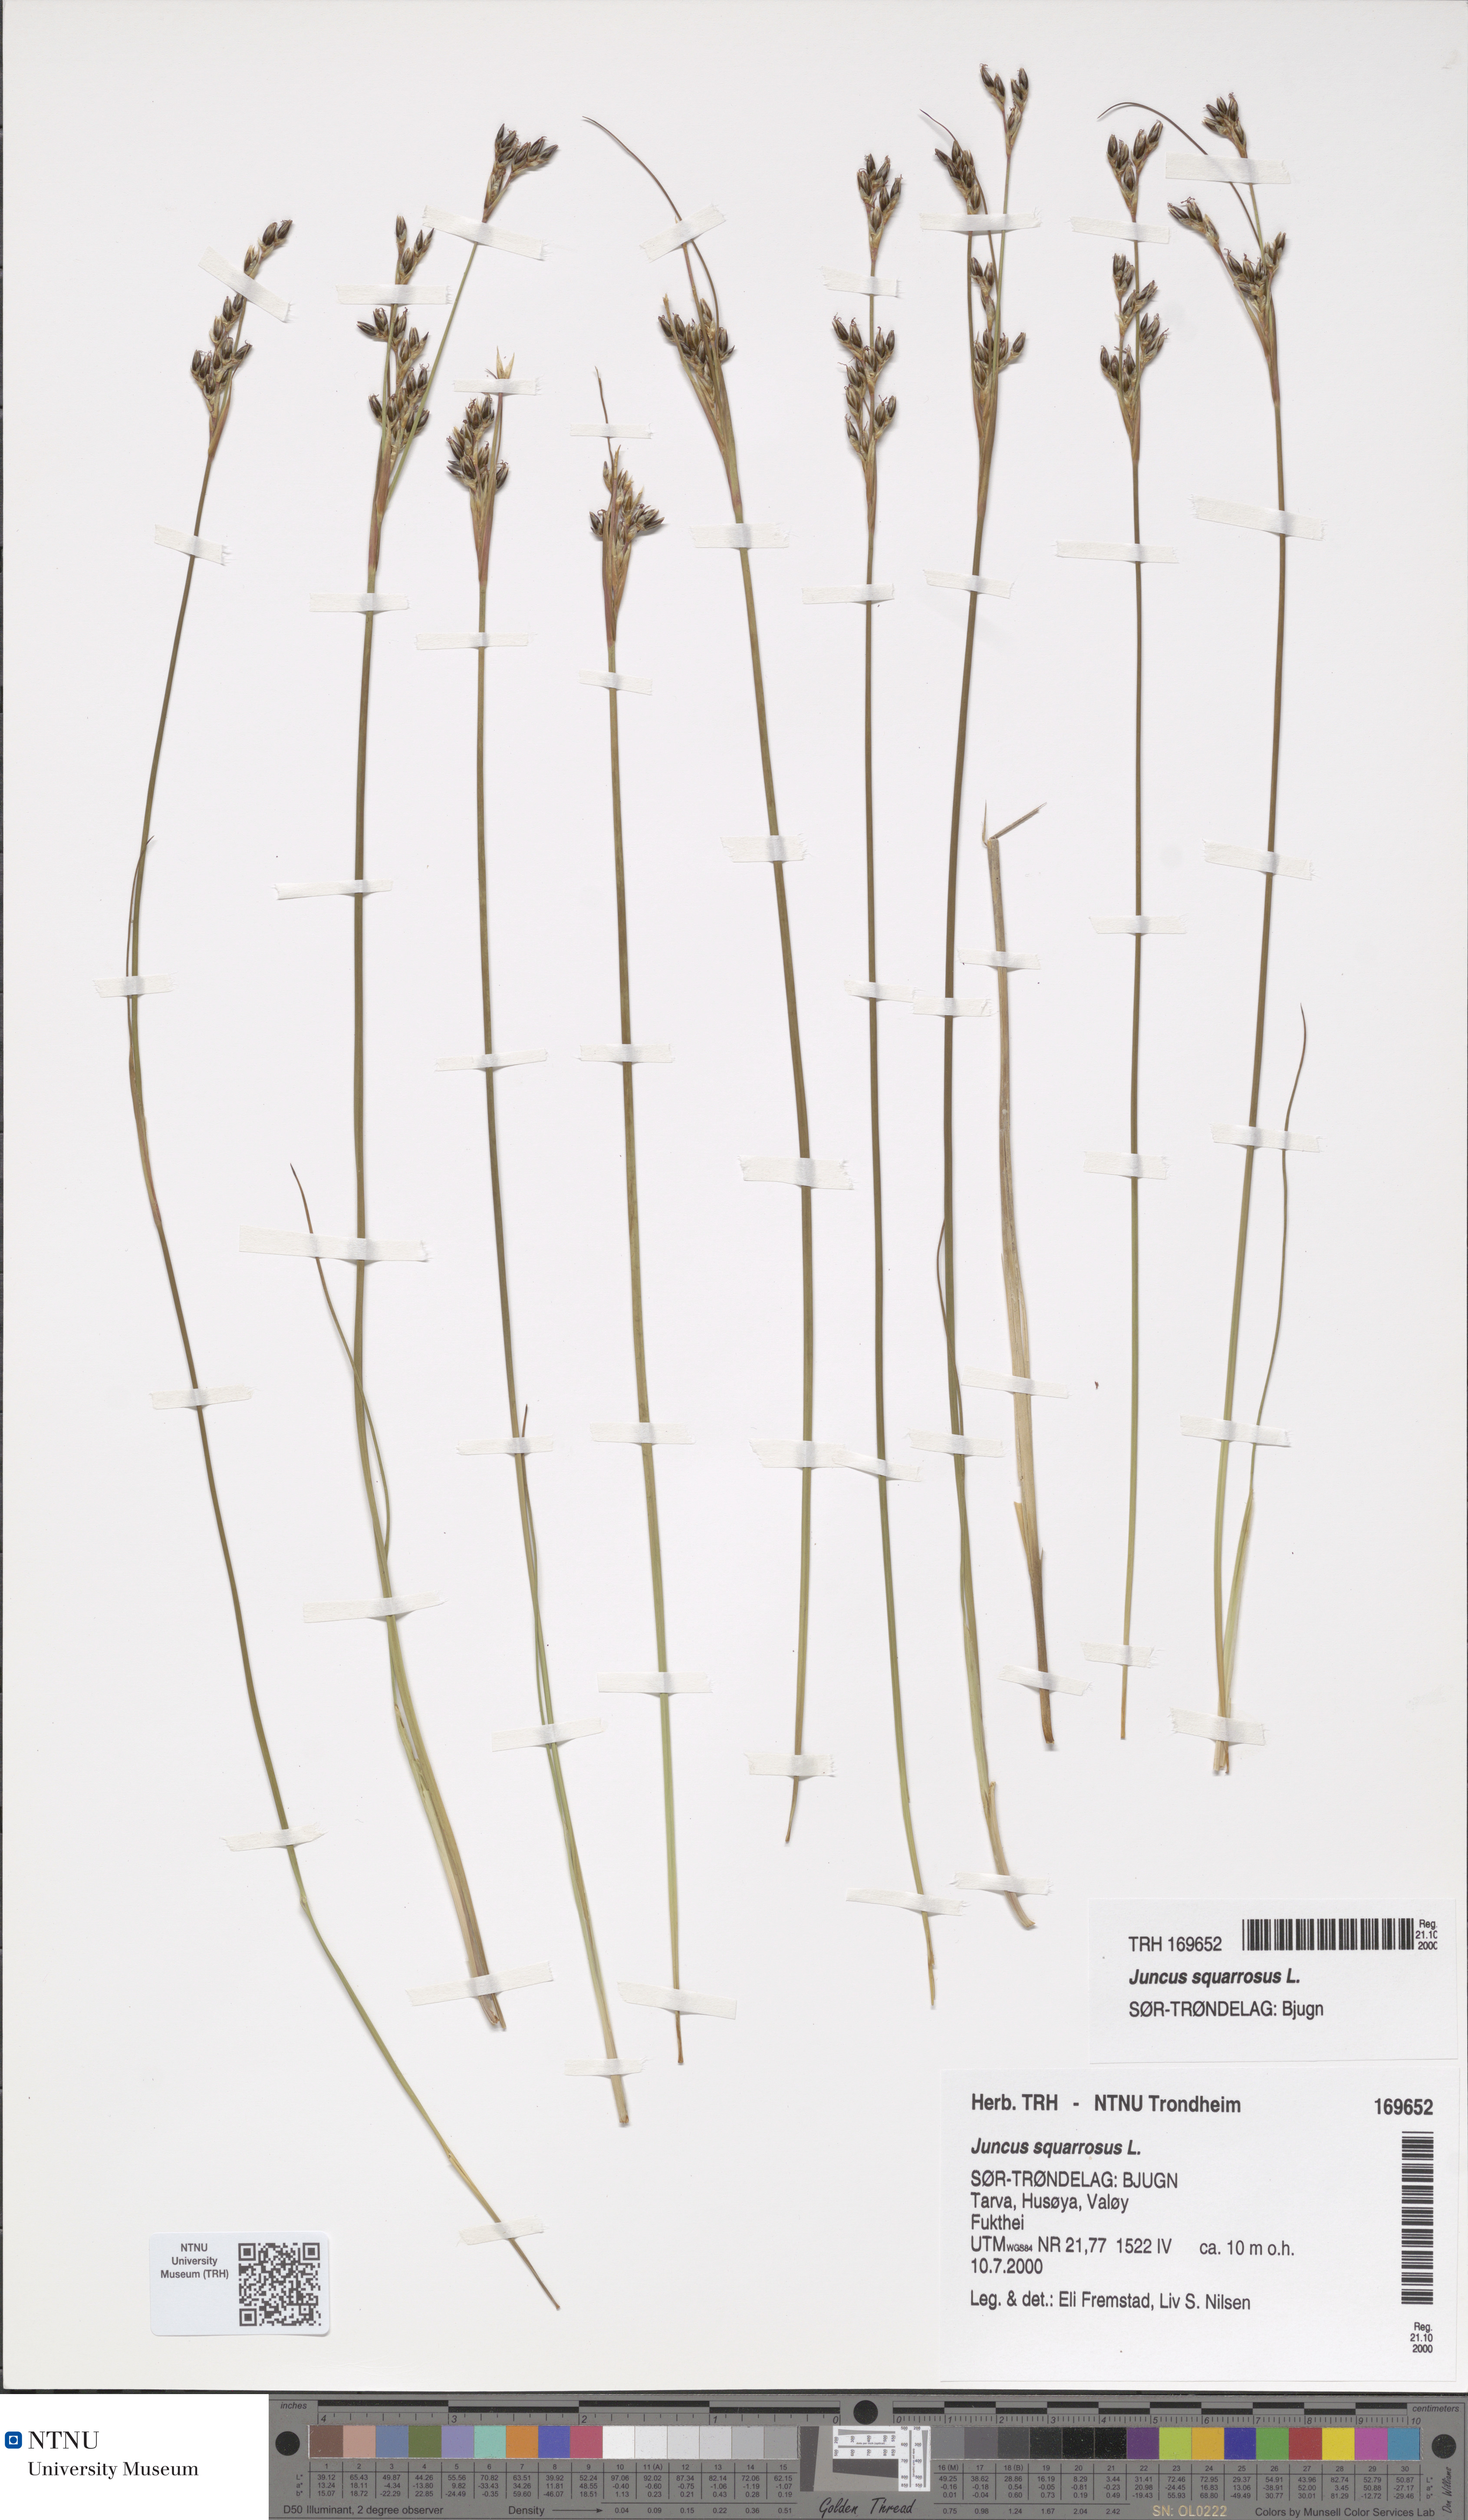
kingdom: Plantae
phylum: Tracheophyta
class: Liliopsida
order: Poales
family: Juncaceae
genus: Juncus
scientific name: Juncus squarrosus
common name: Heath rush
